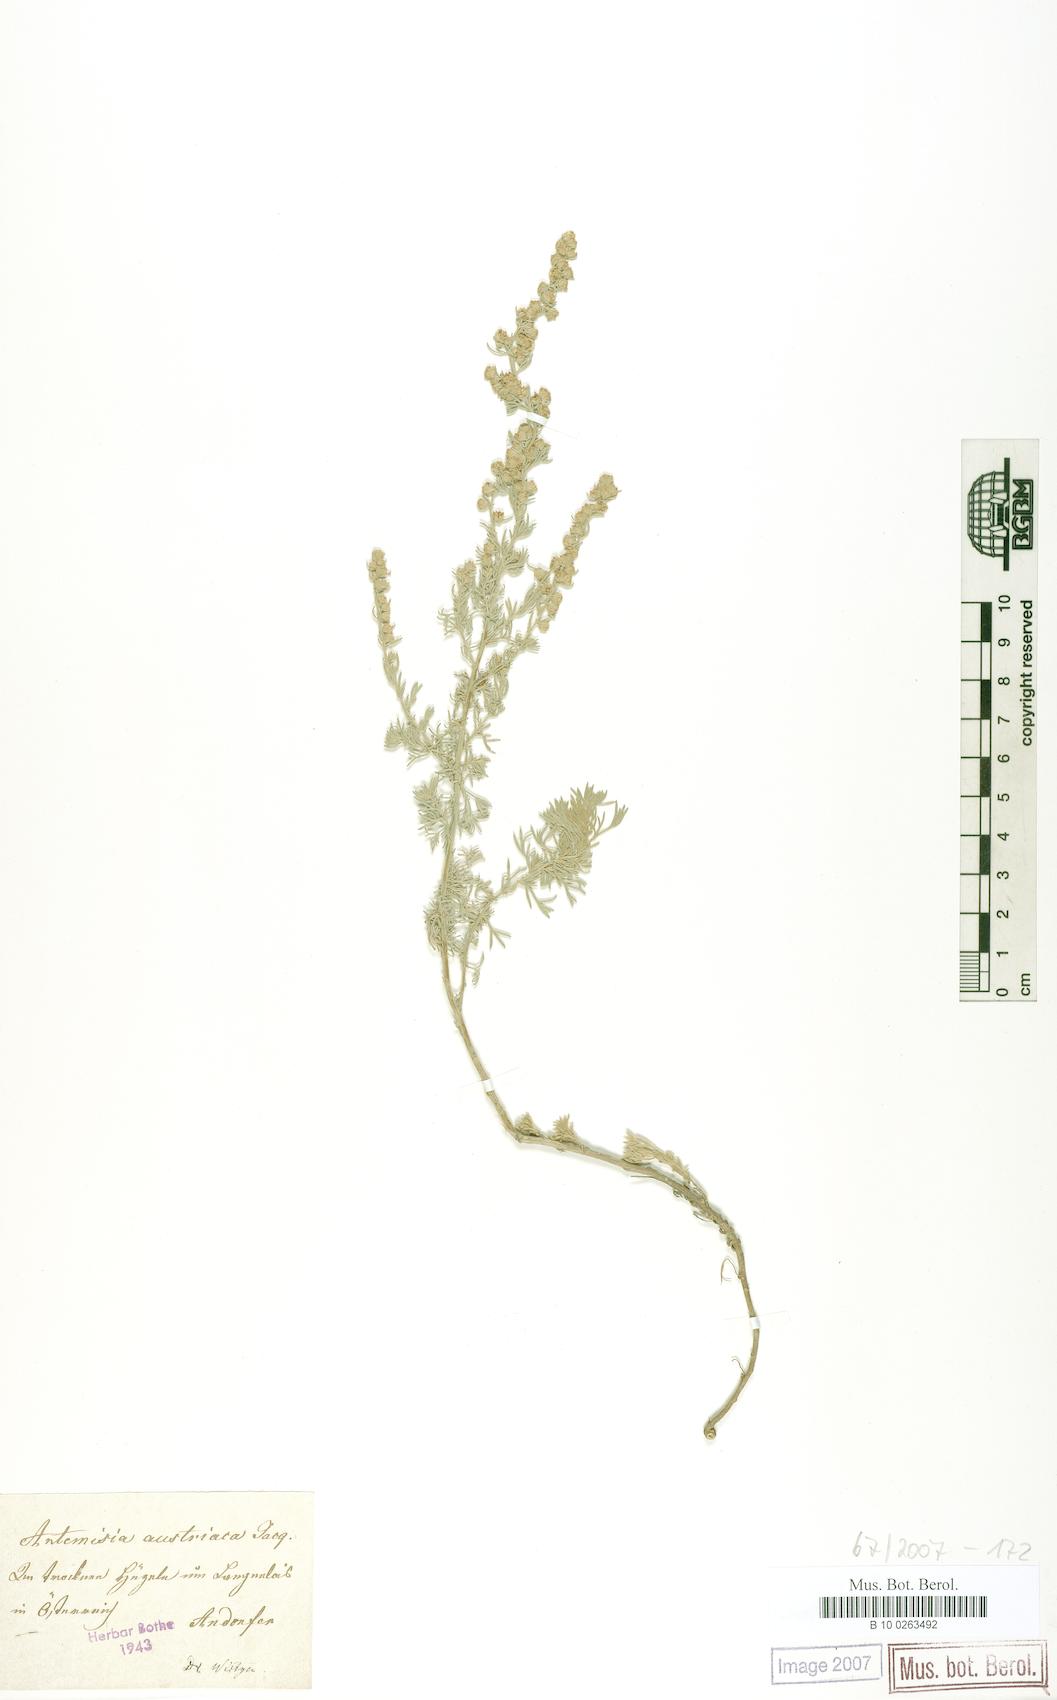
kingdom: Plantae
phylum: Tracheophyta
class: Magnoliopsida
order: Asterales
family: Asteraceae
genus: Artemisia
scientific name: Artemisia austriaca
